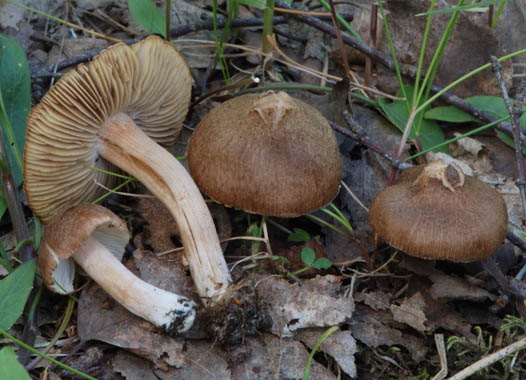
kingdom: Fungi
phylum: Basidiomycota
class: Agaricomycetes
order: Agaricales
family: Inocybaceae
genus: Inocybe
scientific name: Inocybe pseudodestricta
